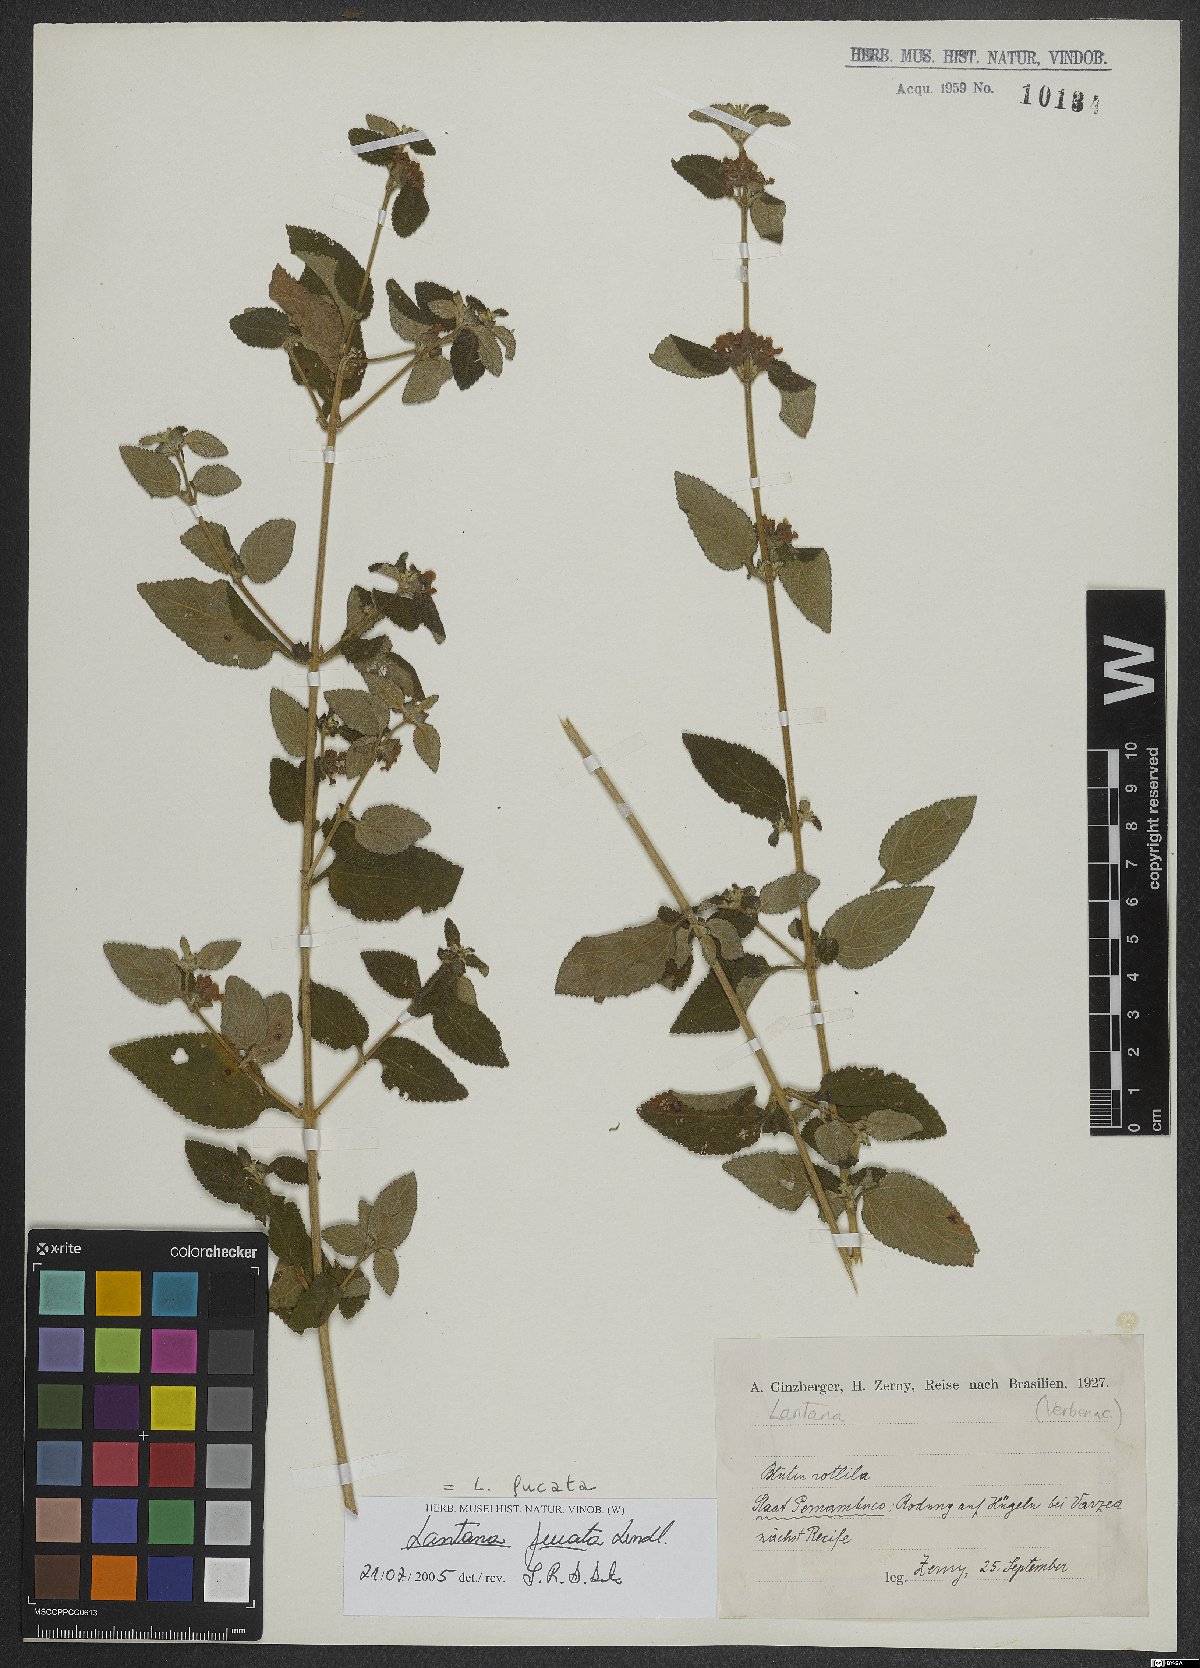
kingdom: Plantae
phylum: Tracheophyta
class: Magnoliopsida
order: Lamiales
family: Verbenaceae
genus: Lantana
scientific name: Lantana fucata
